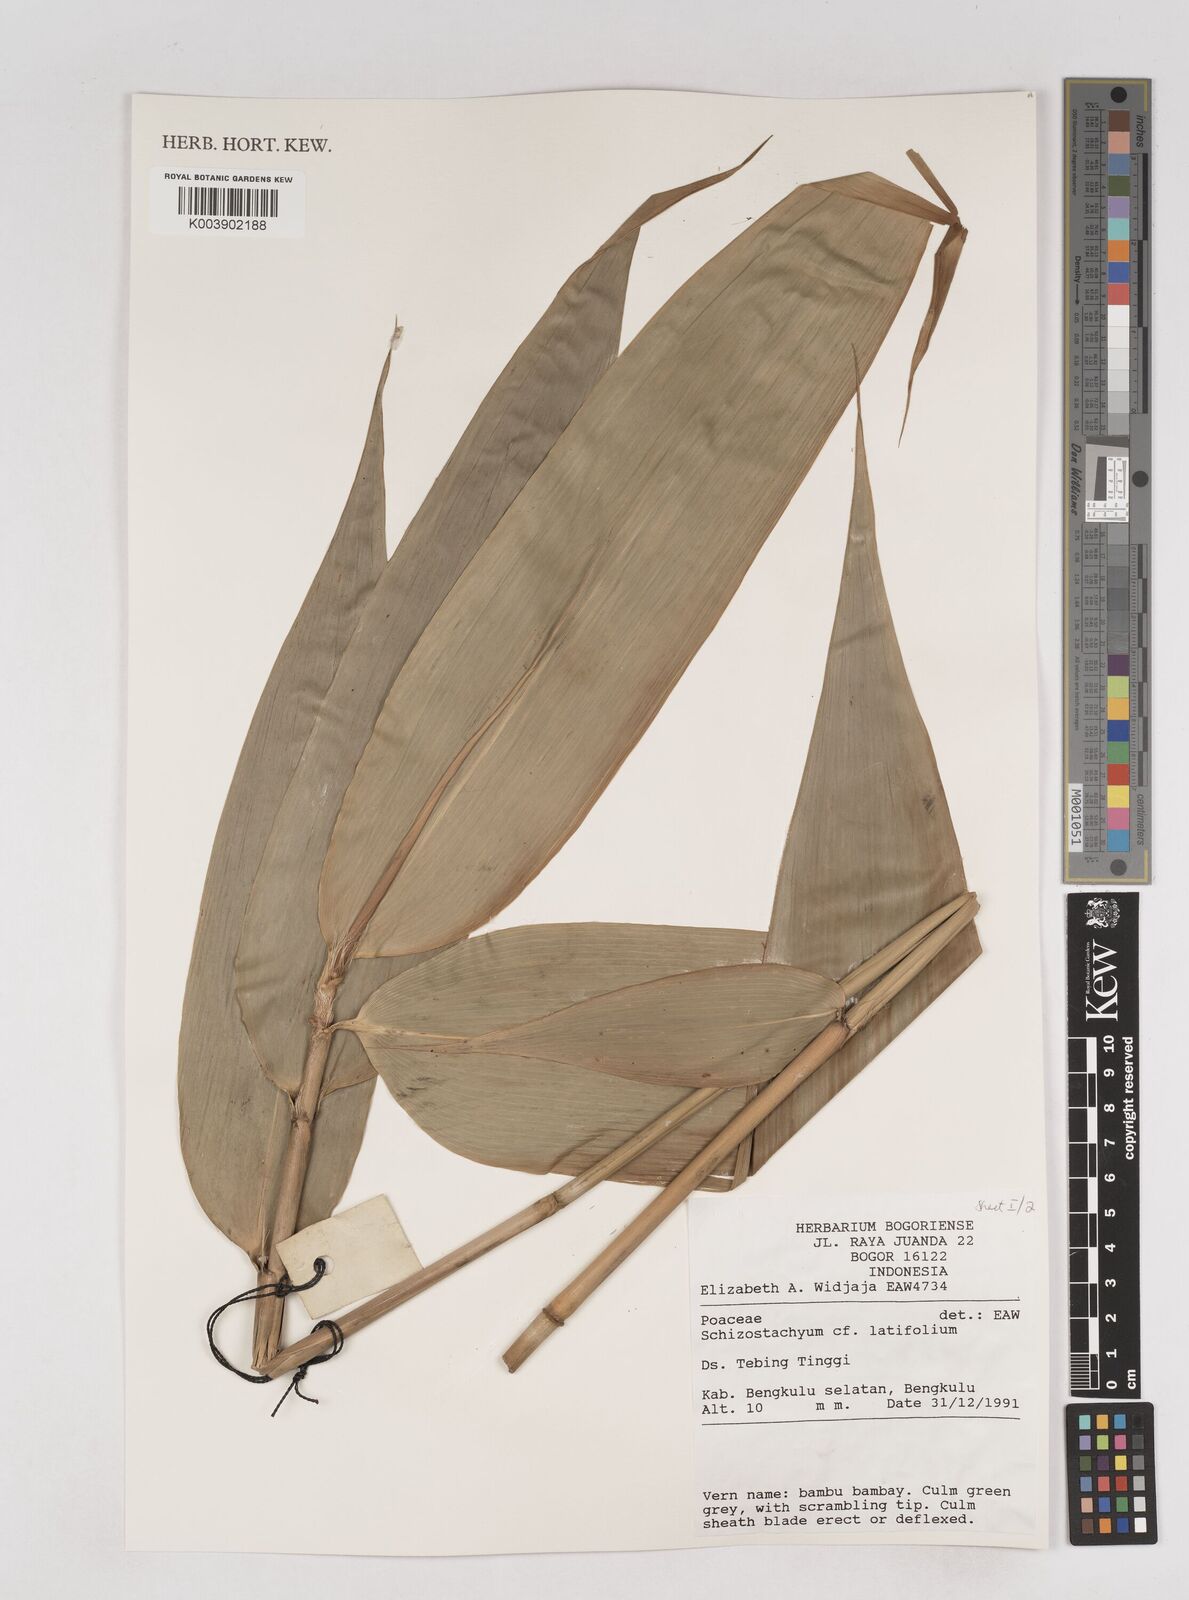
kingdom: Plantae
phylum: Tracheophyta
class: Liliopsida
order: Poales
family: Poaceae
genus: Schizostachyum
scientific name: Schizostachyum latifolium
